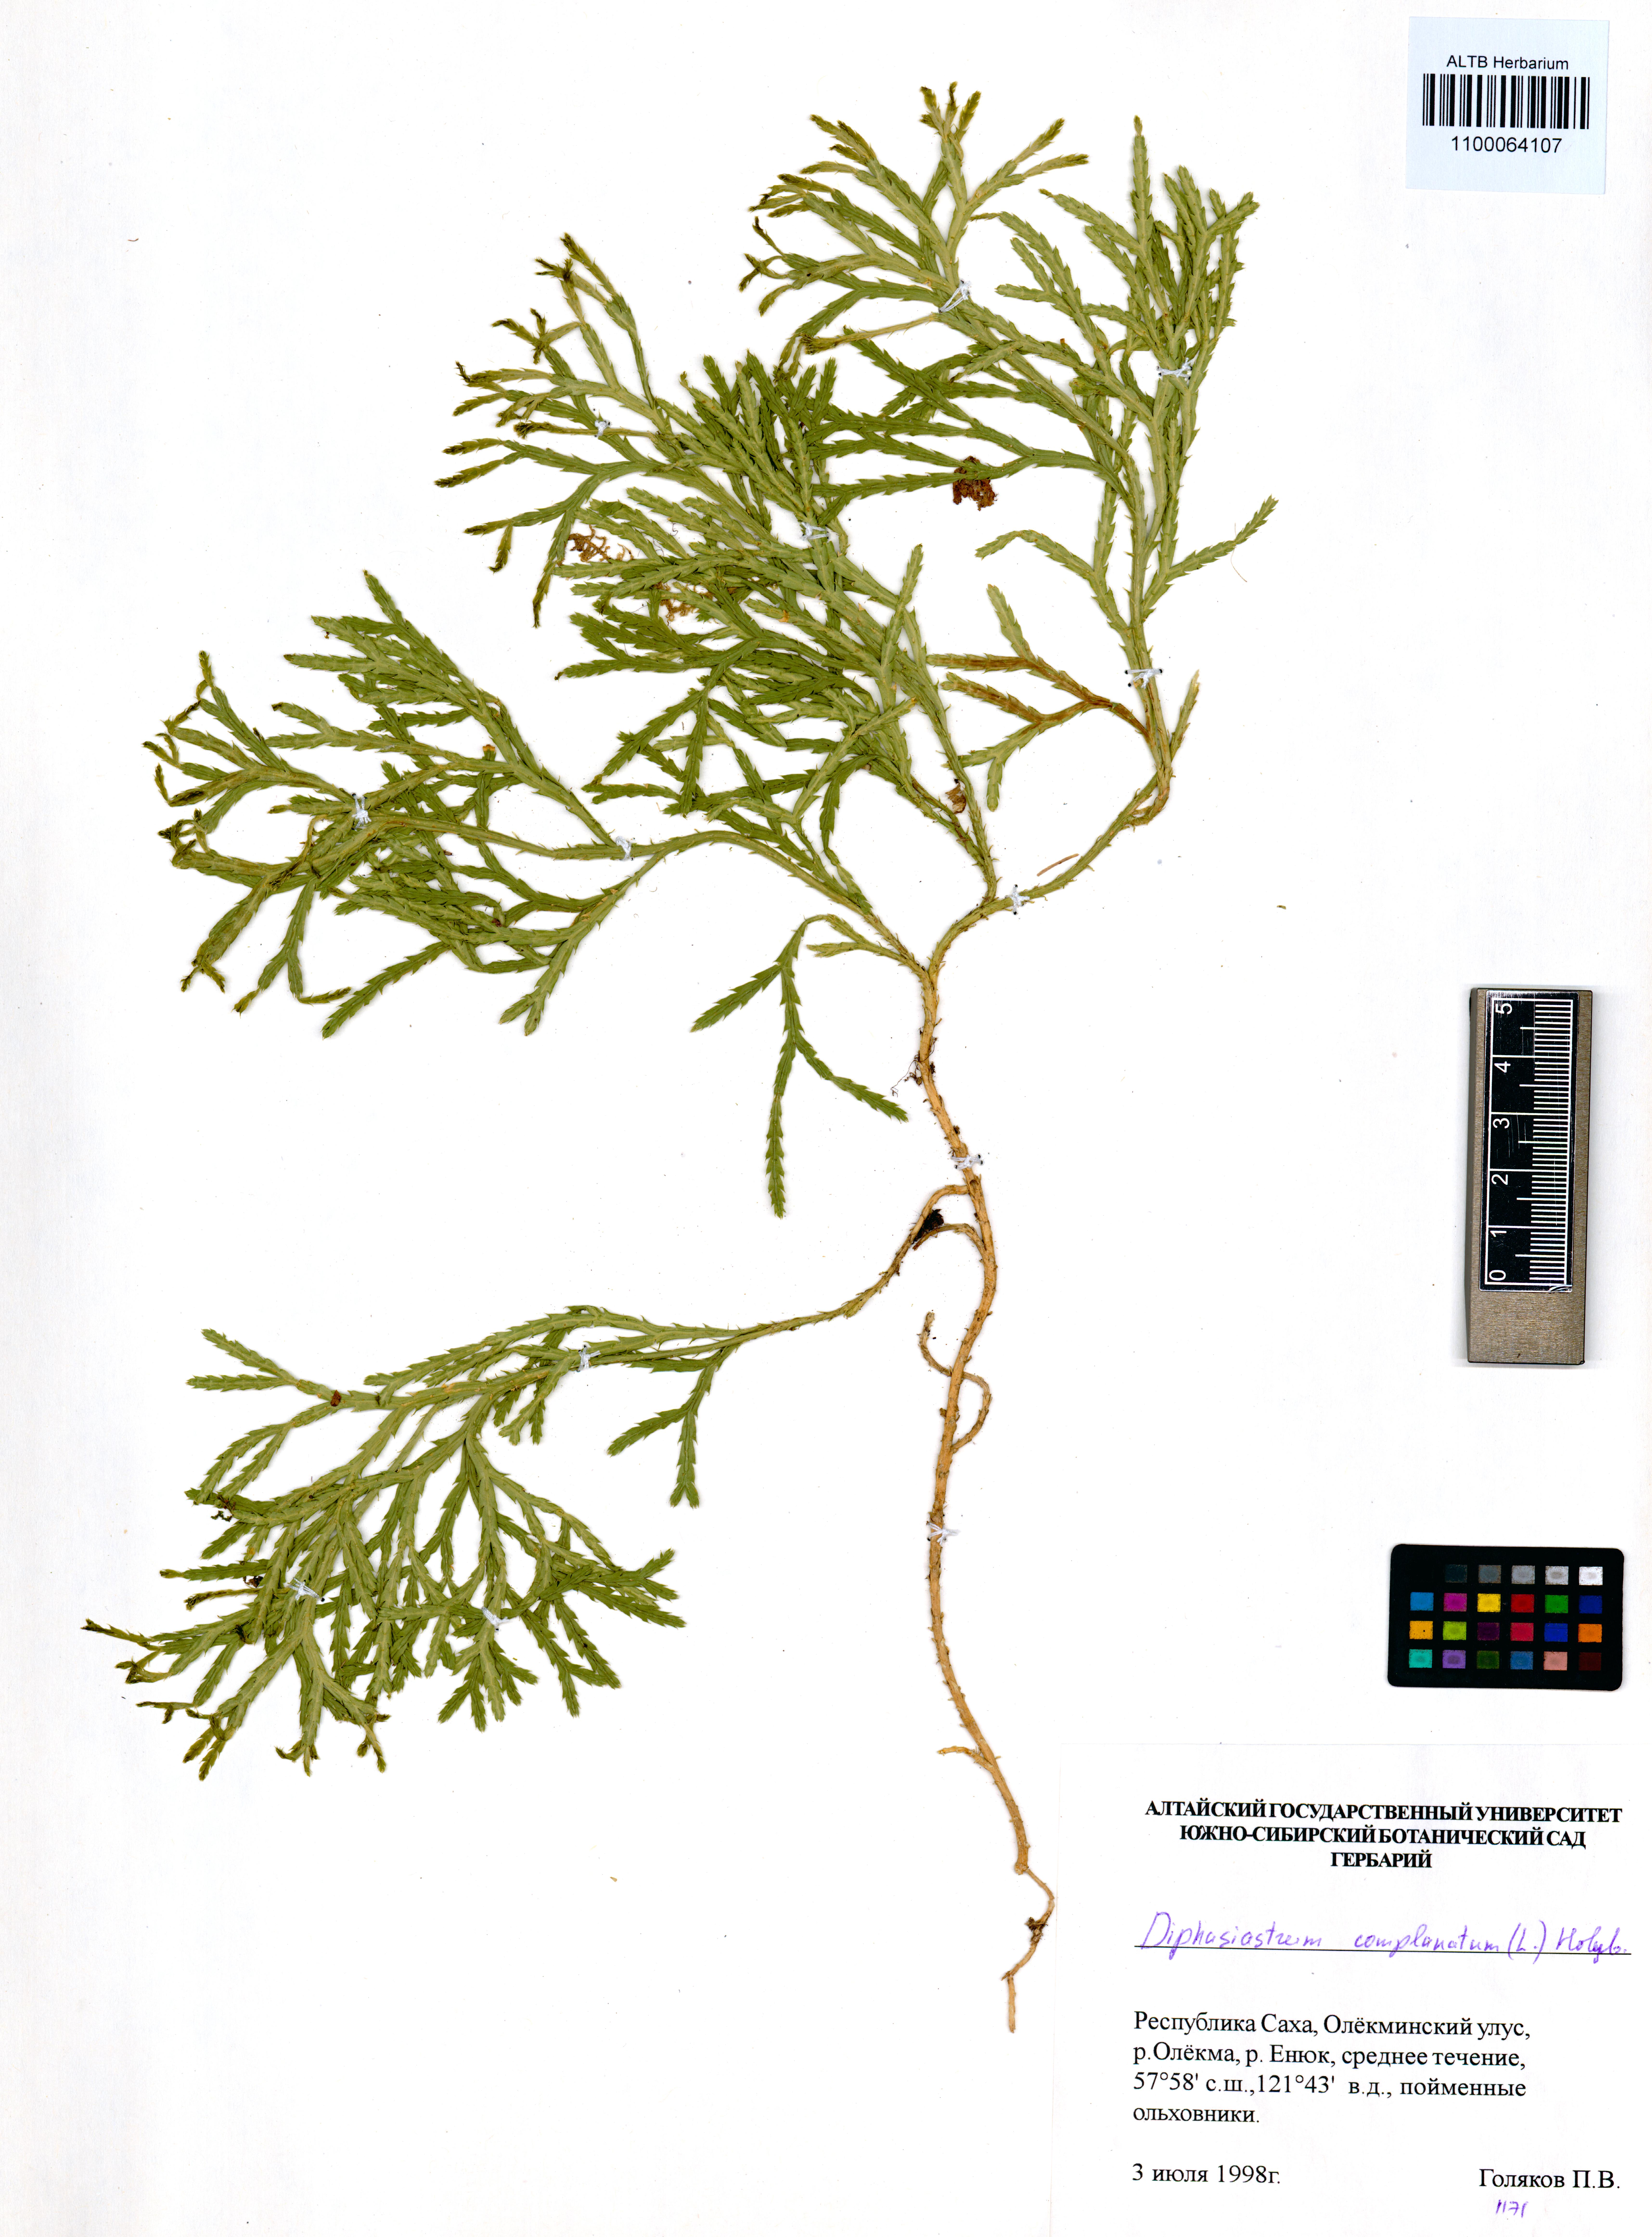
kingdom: Plantae
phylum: Tracheophyta
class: Lycopodiopsida
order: Lycopodiales
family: Lycopodiaceae
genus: Diphasiastrum
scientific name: Diphasiastrum complanatum
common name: Northern running-pine
